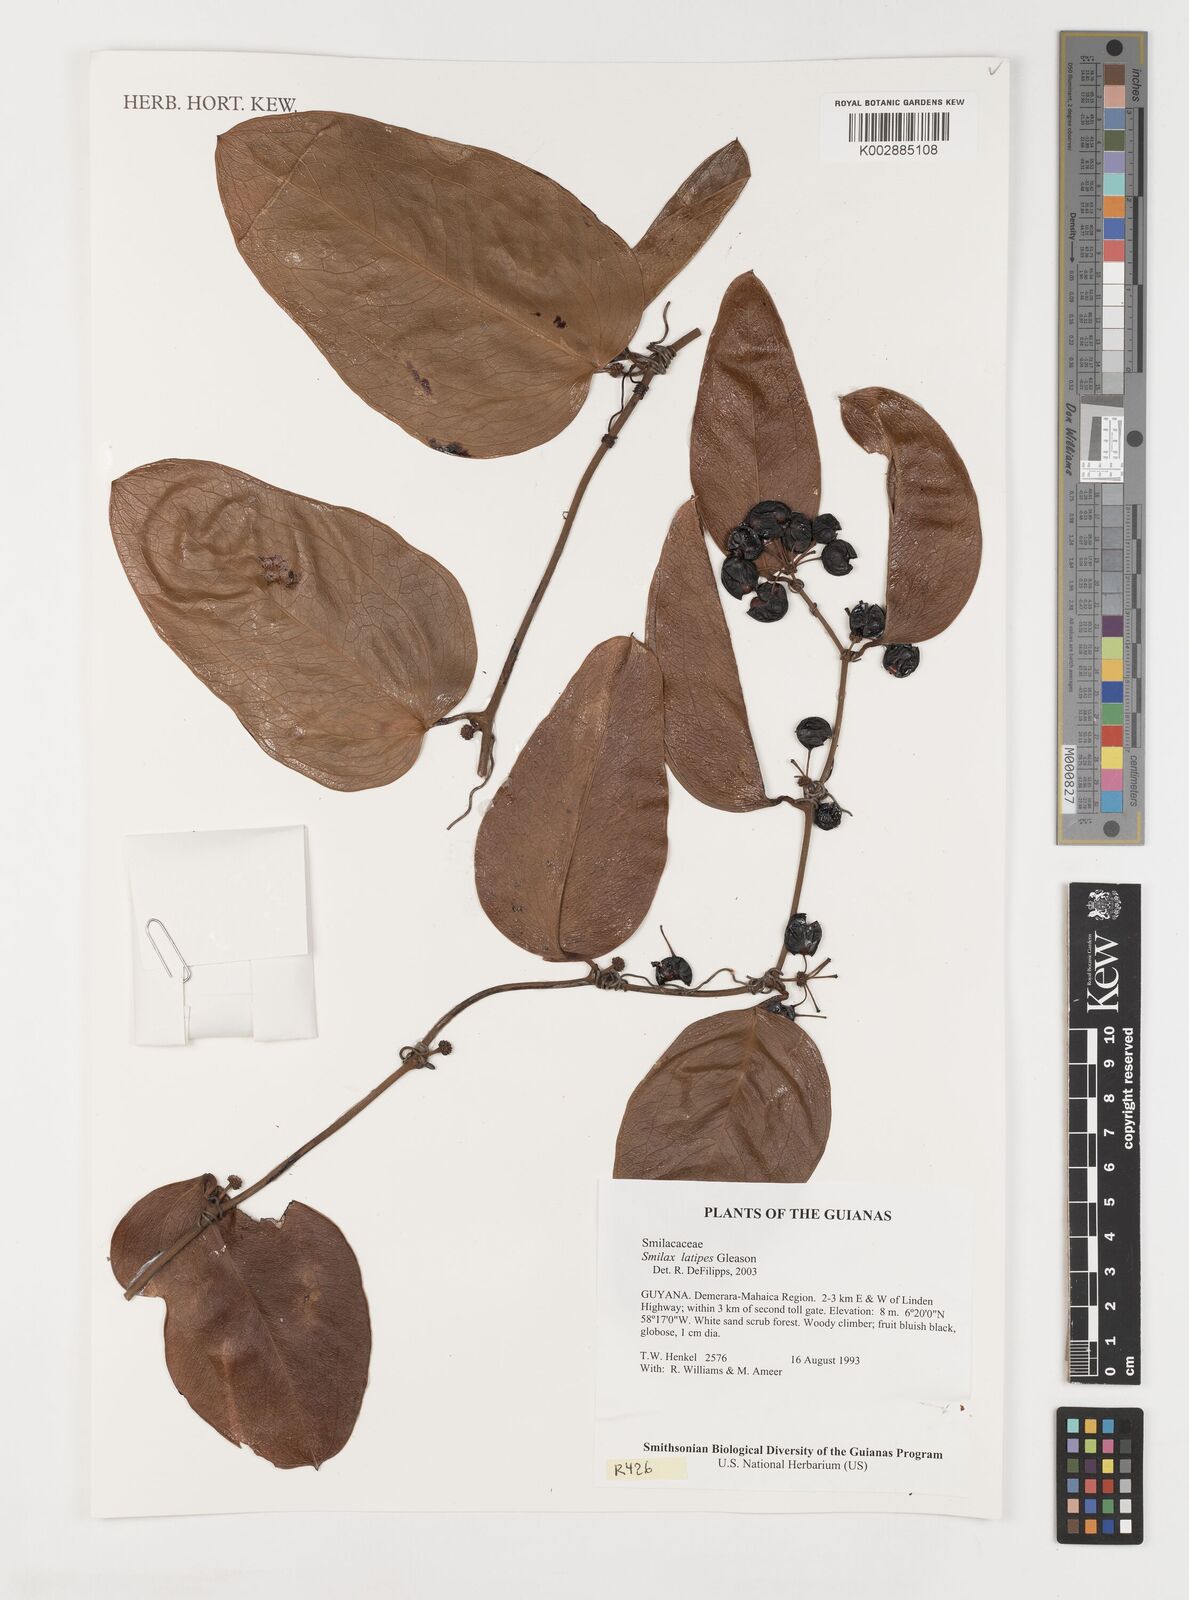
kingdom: Plantae
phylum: Tracheophyta
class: Liliopsida
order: Liliales
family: Smilacaceae
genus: Smilax
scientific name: Smilax schomburgkiana
